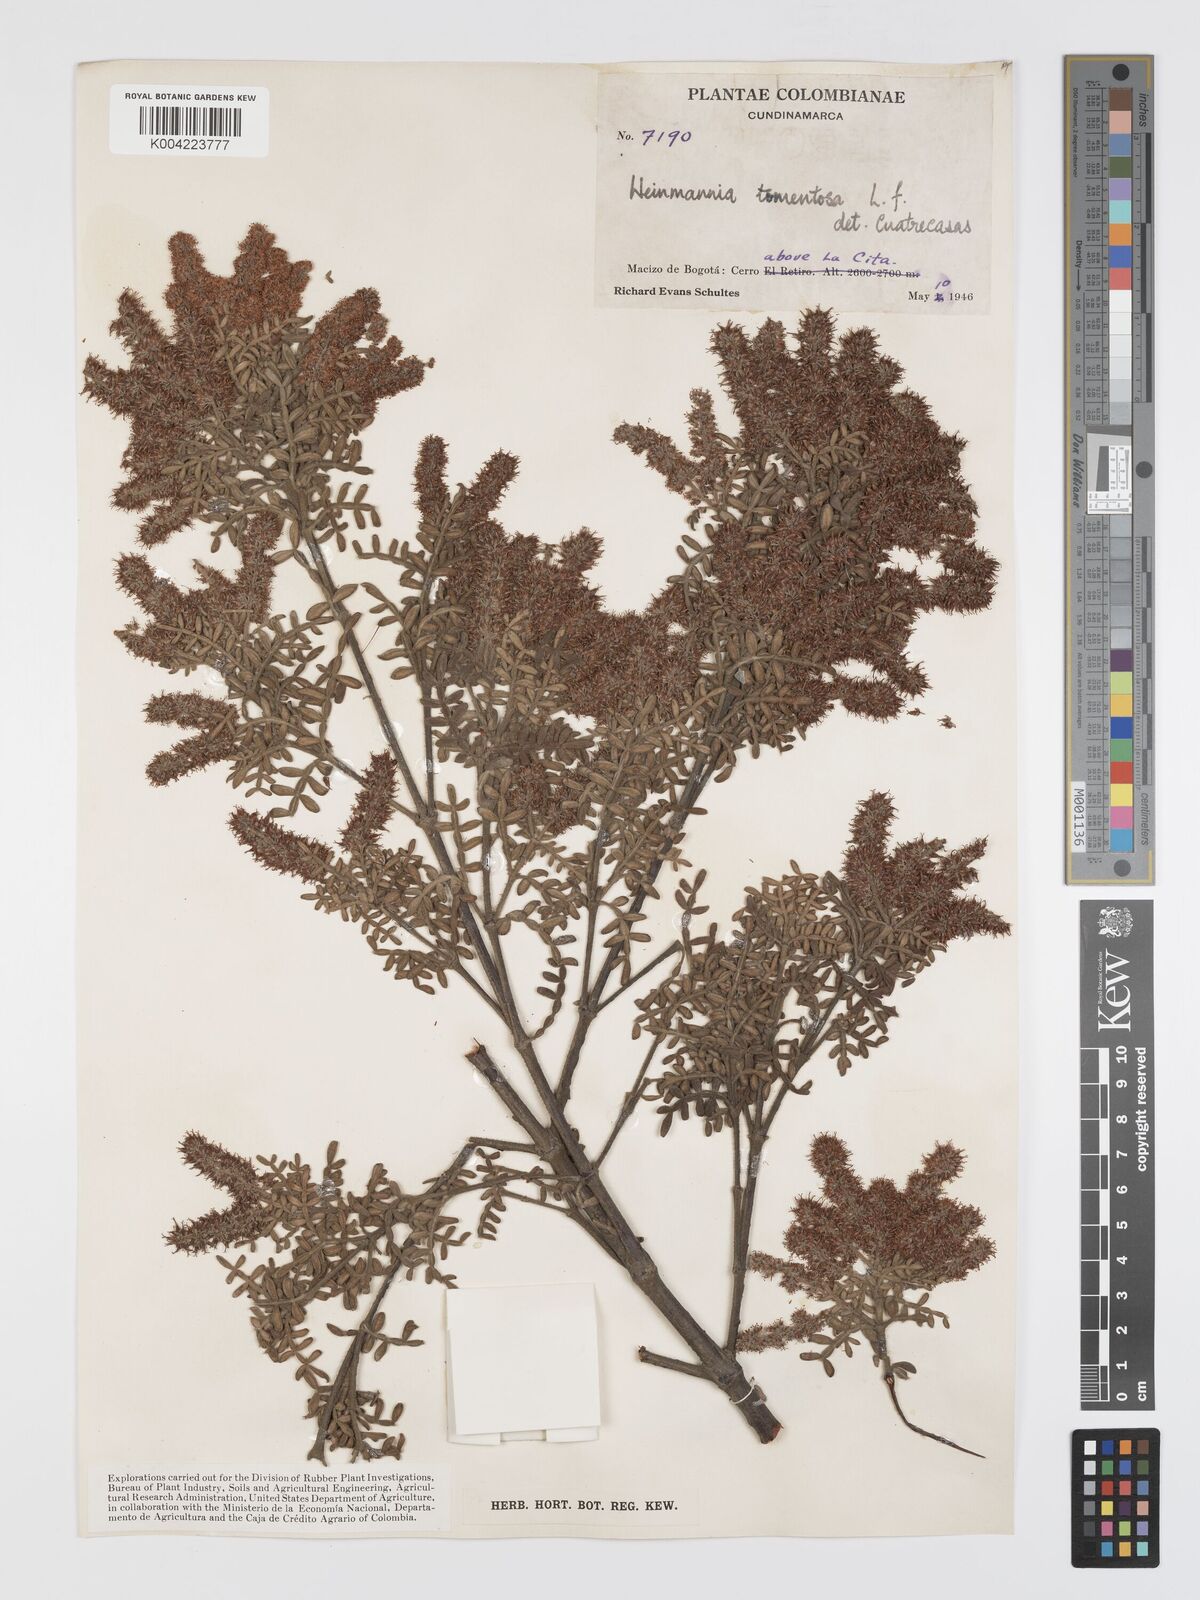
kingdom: Plantae
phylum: Tracheophyta
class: Magnoliopsida
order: Oxalidales
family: Cunoniaceae
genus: Weinmannia
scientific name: Weinmannia tomentosa
